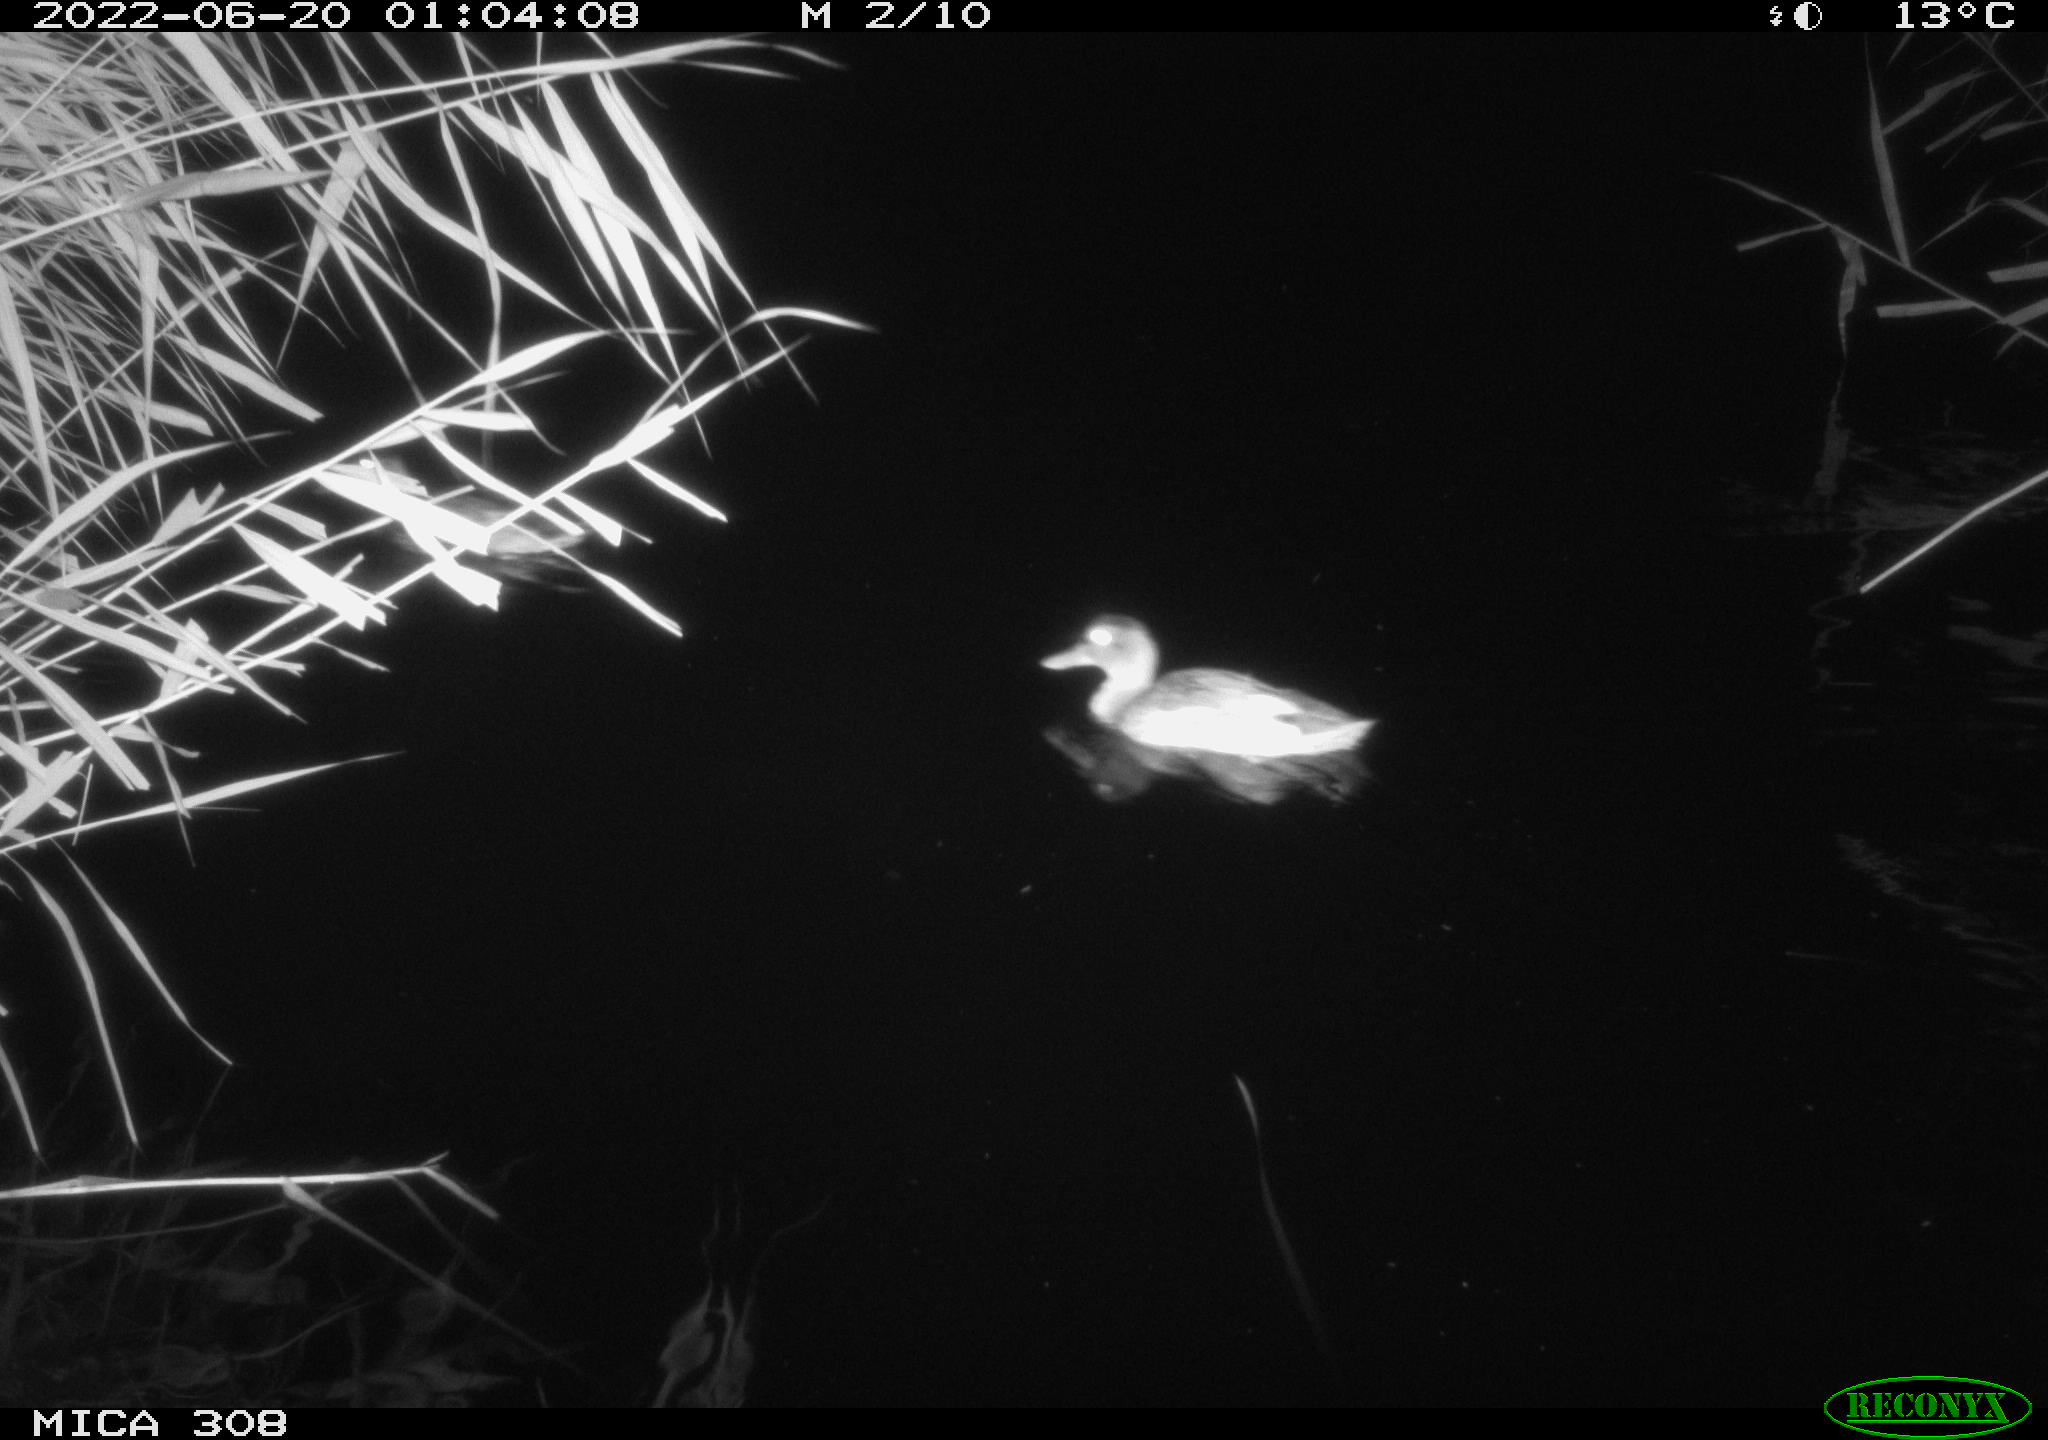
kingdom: Animalia
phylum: Chordata
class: Aves
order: Anseriformes
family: Anatidae
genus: Mareca
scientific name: Mareca strepera
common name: Gadwall
